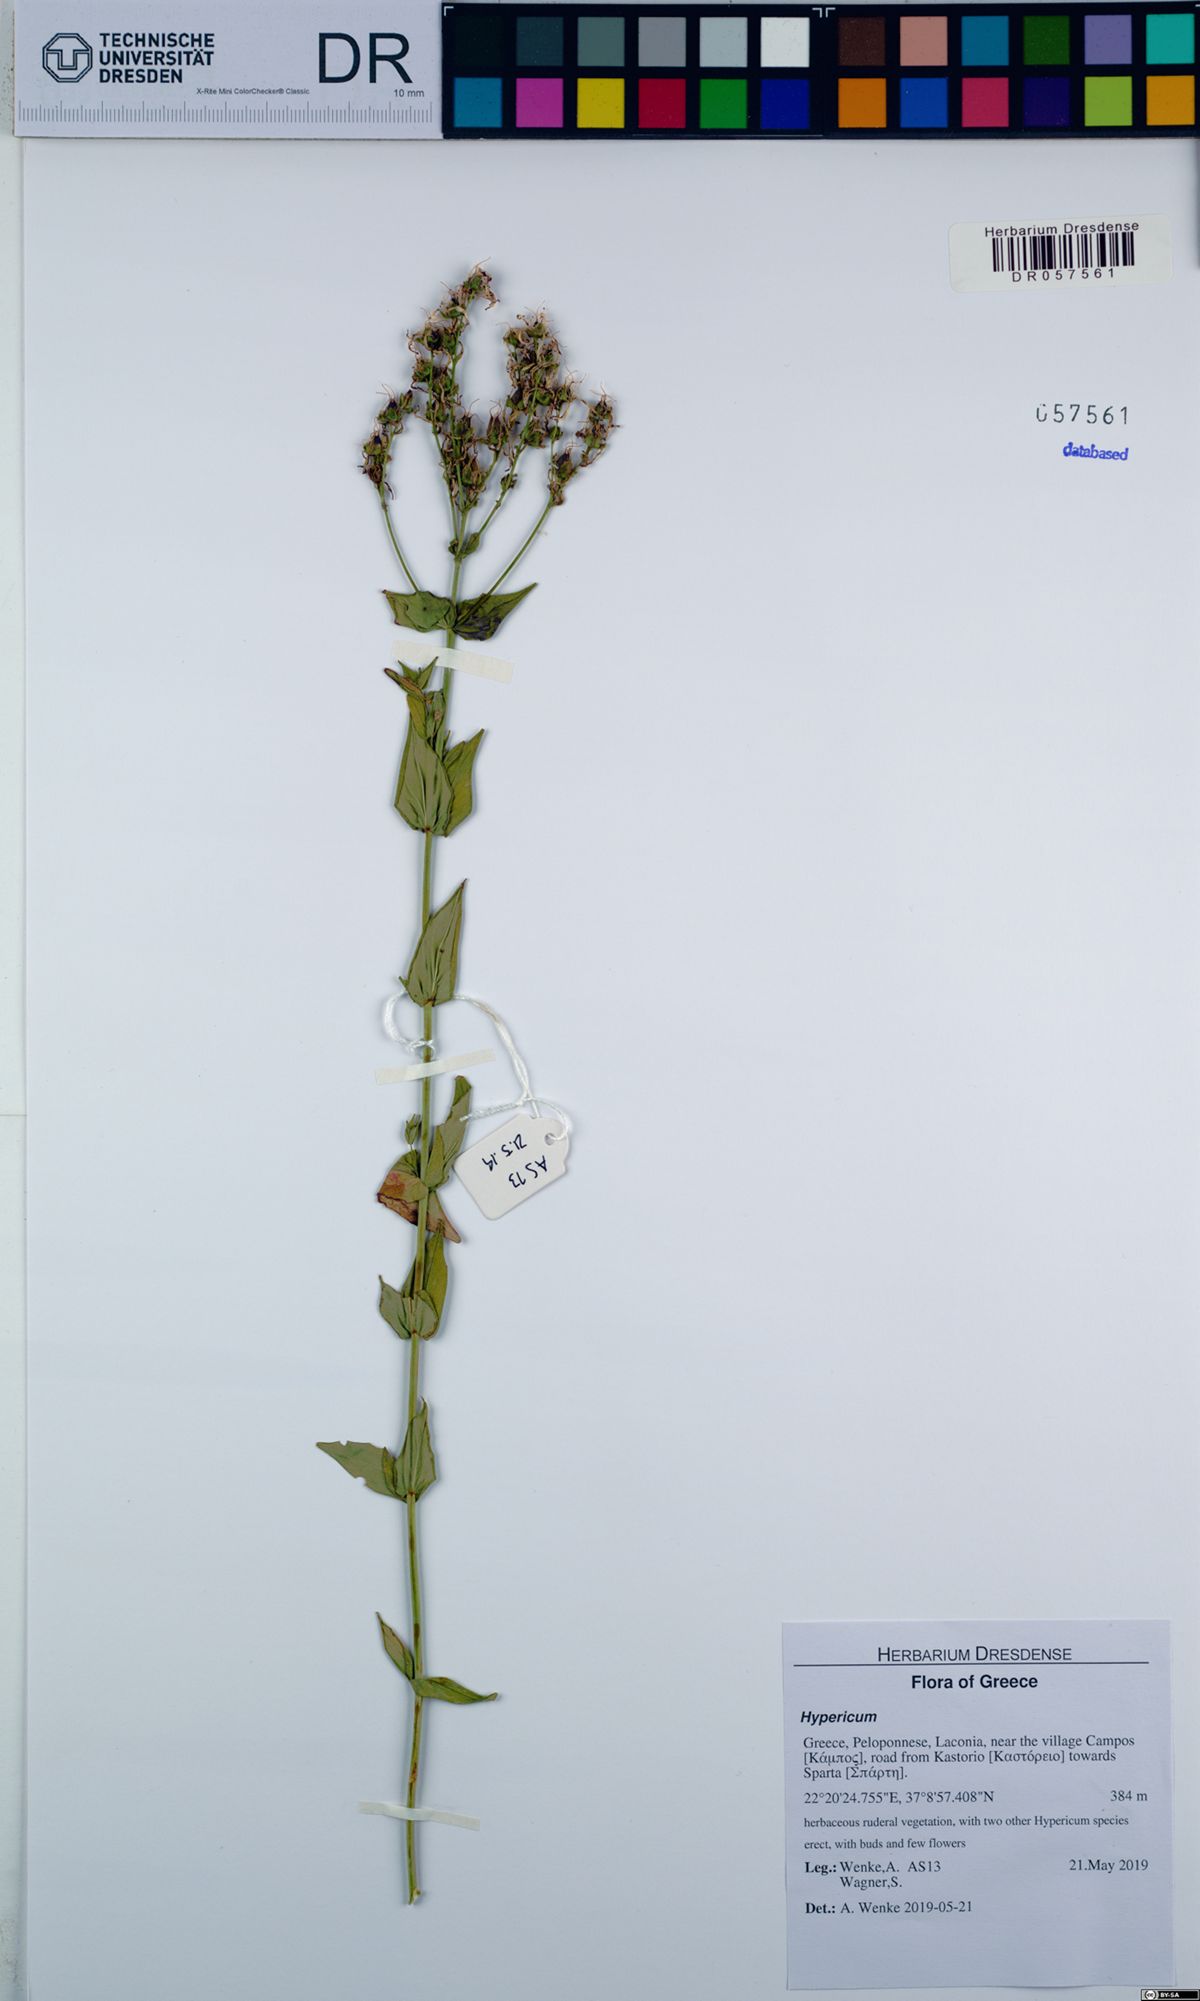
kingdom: Plantae
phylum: Tracheophyta
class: Magnoliopsida
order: Malpighiales
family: Hypericaceae
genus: Hypericum
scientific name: Hypericum perfoliatum
